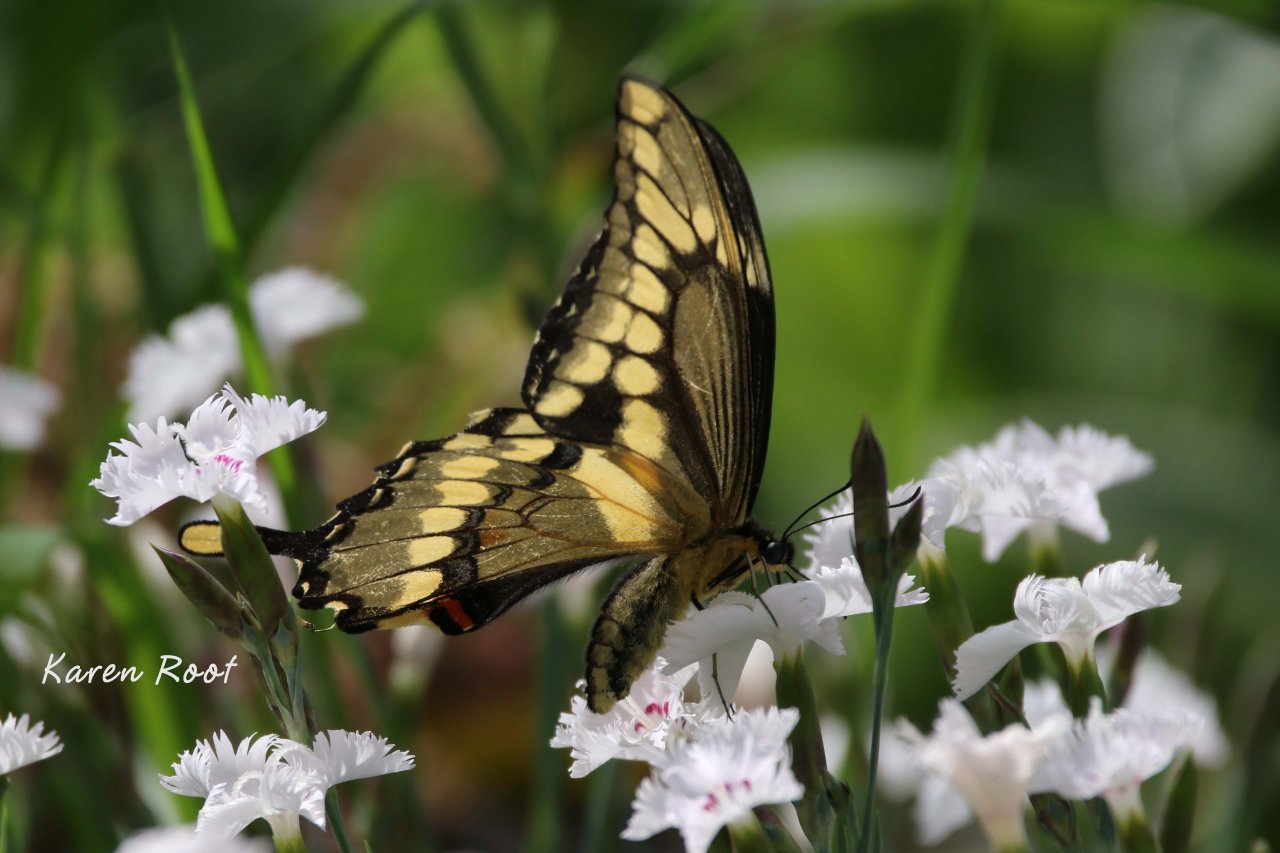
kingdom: Animalia
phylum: Arthropoda
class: Insecta
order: Lepidoptera
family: Papilionidae
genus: Papilio
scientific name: Papilio cresphontes
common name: Eastern Giant Swallowtail
